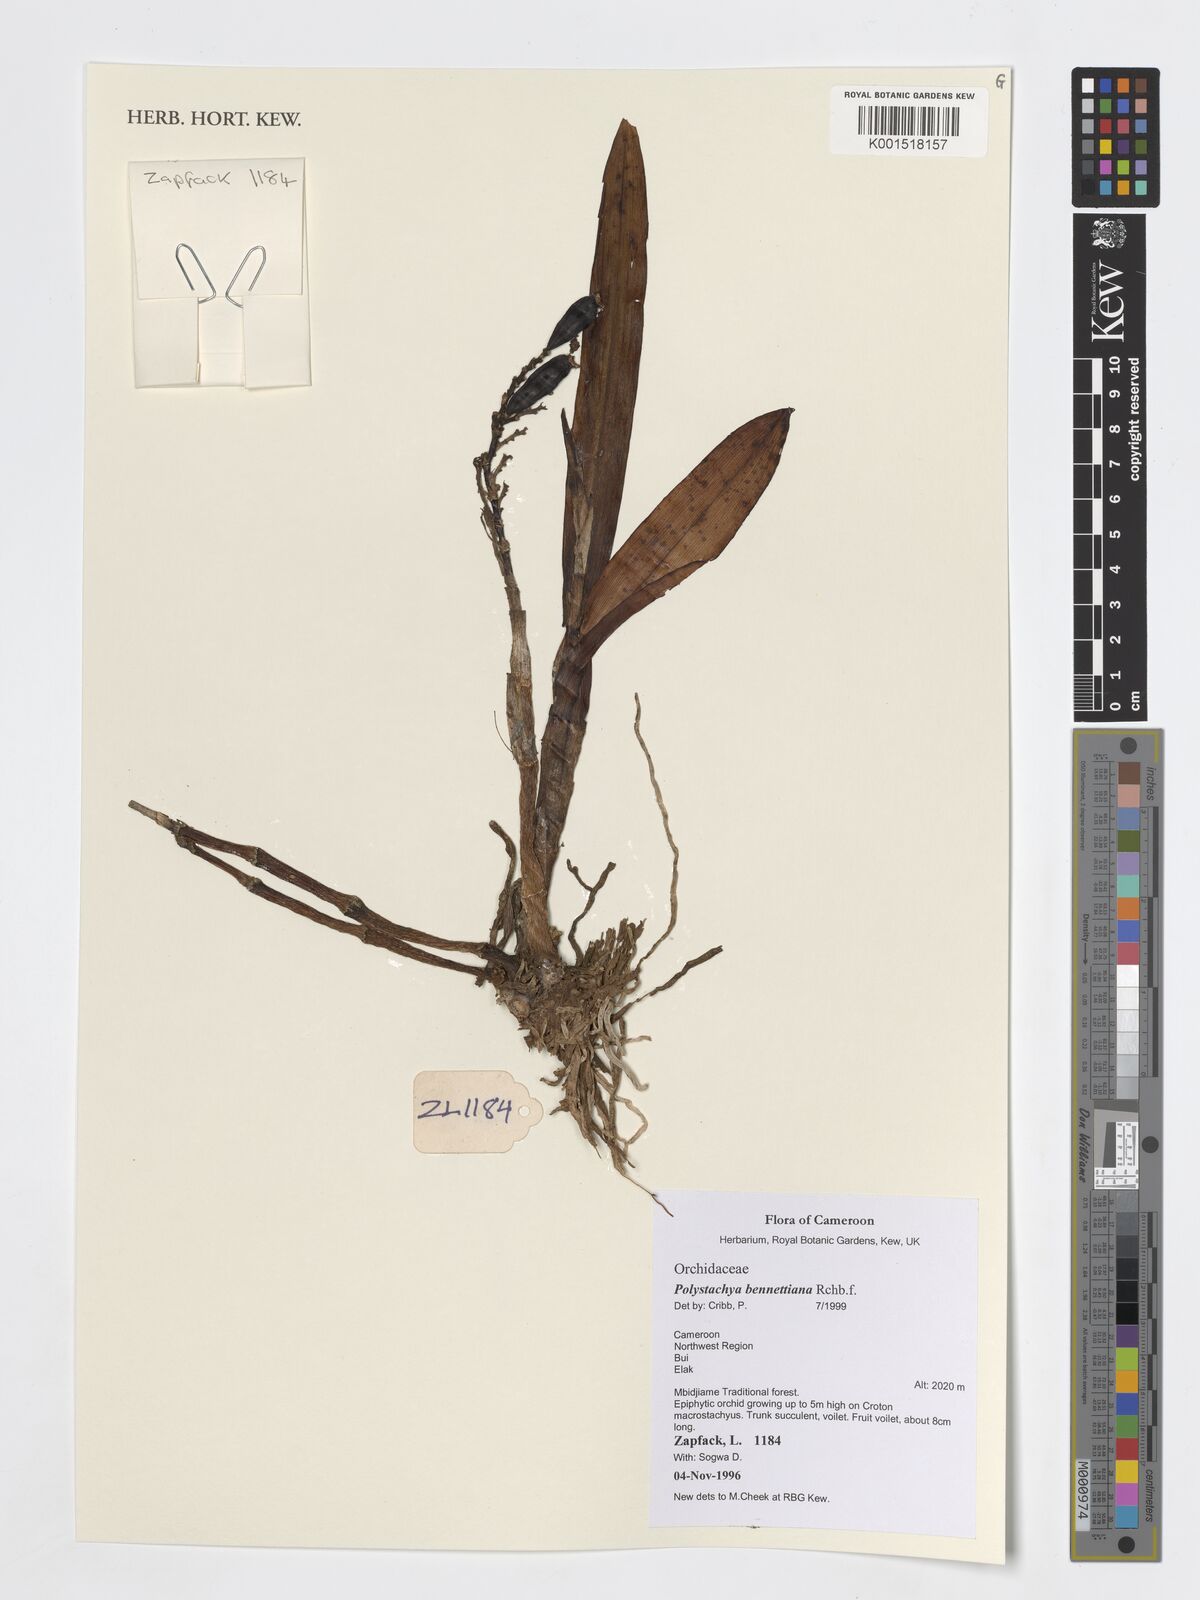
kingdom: Plantae
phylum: Tracheophyta
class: Liliopsida
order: Asparagales
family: Orchidaceae
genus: Polystachya
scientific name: Polystachya bennettiana
